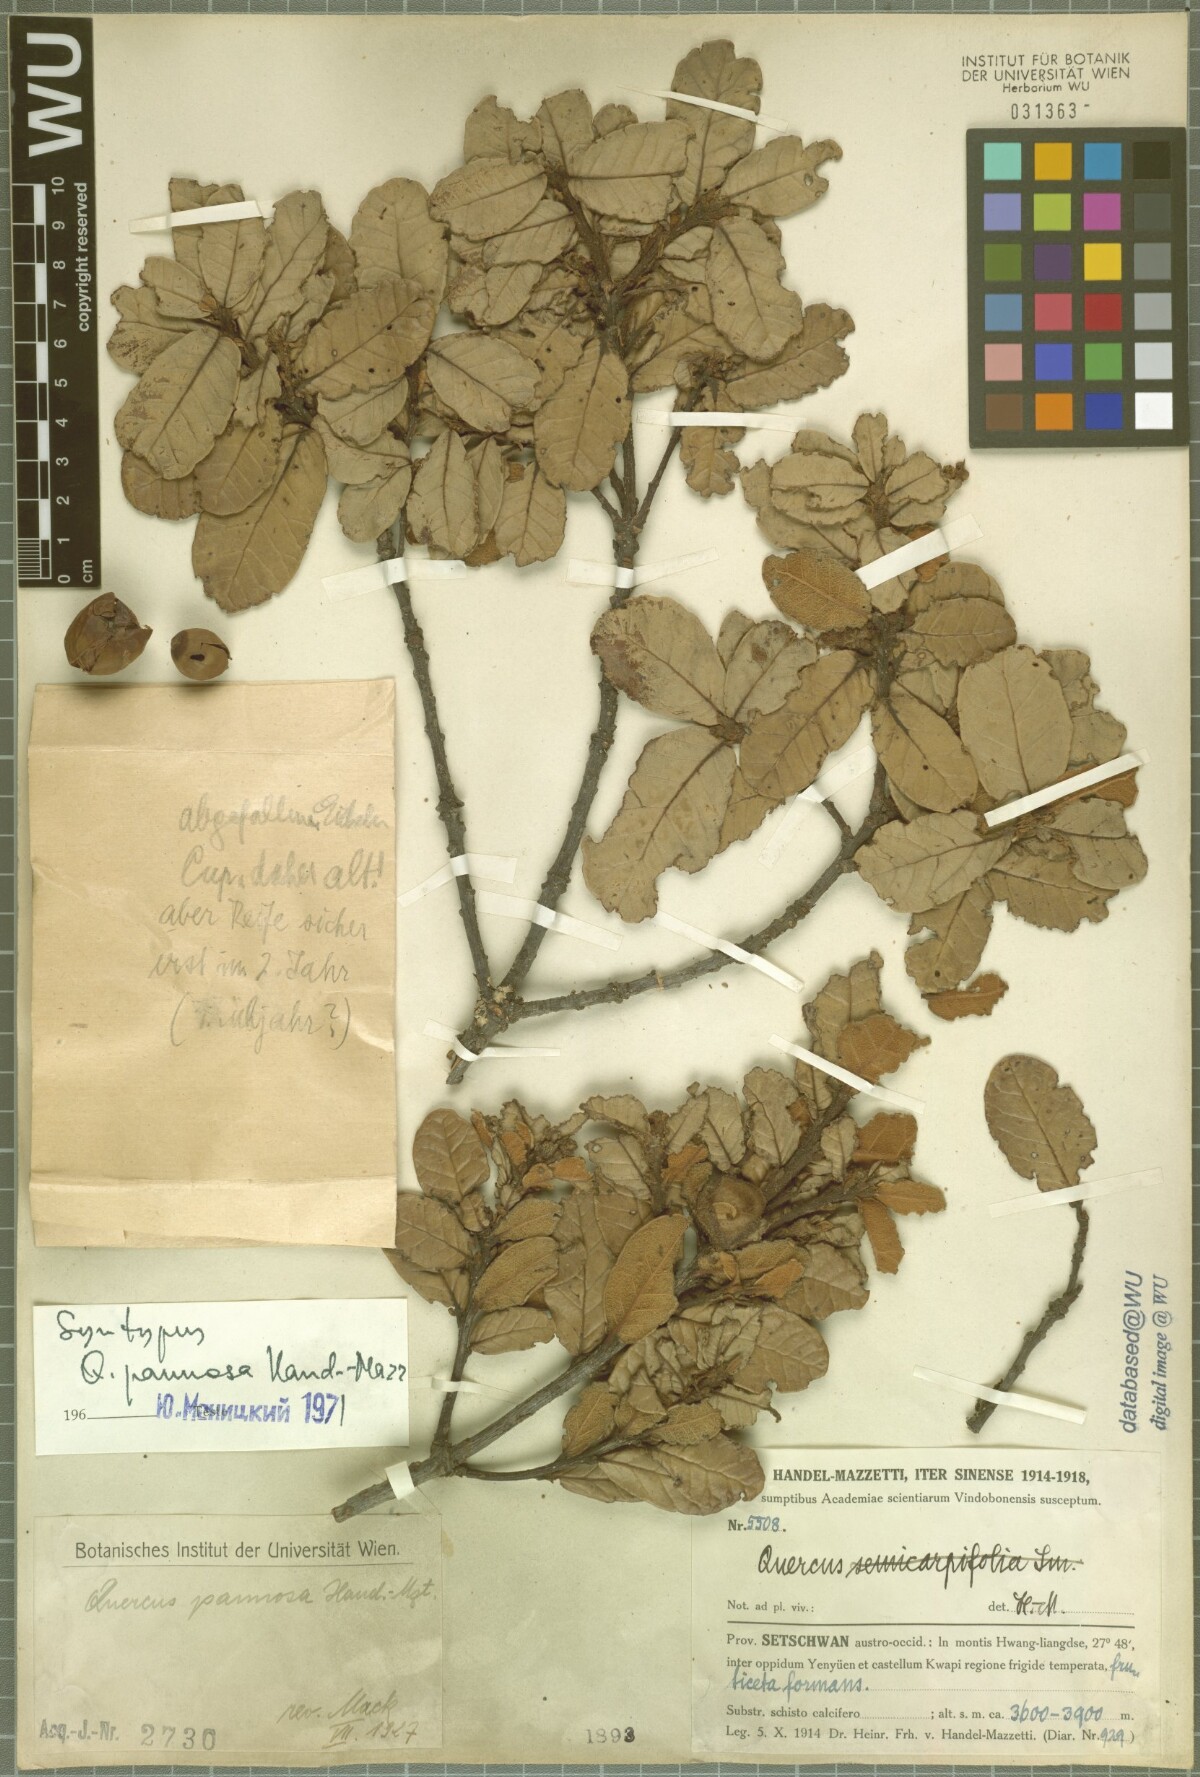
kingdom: Plantae
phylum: Tracheophyta
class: Magnoliopsida
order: Fagales
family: Fagaceae
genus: Quercus
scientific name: Quercus pannosa
